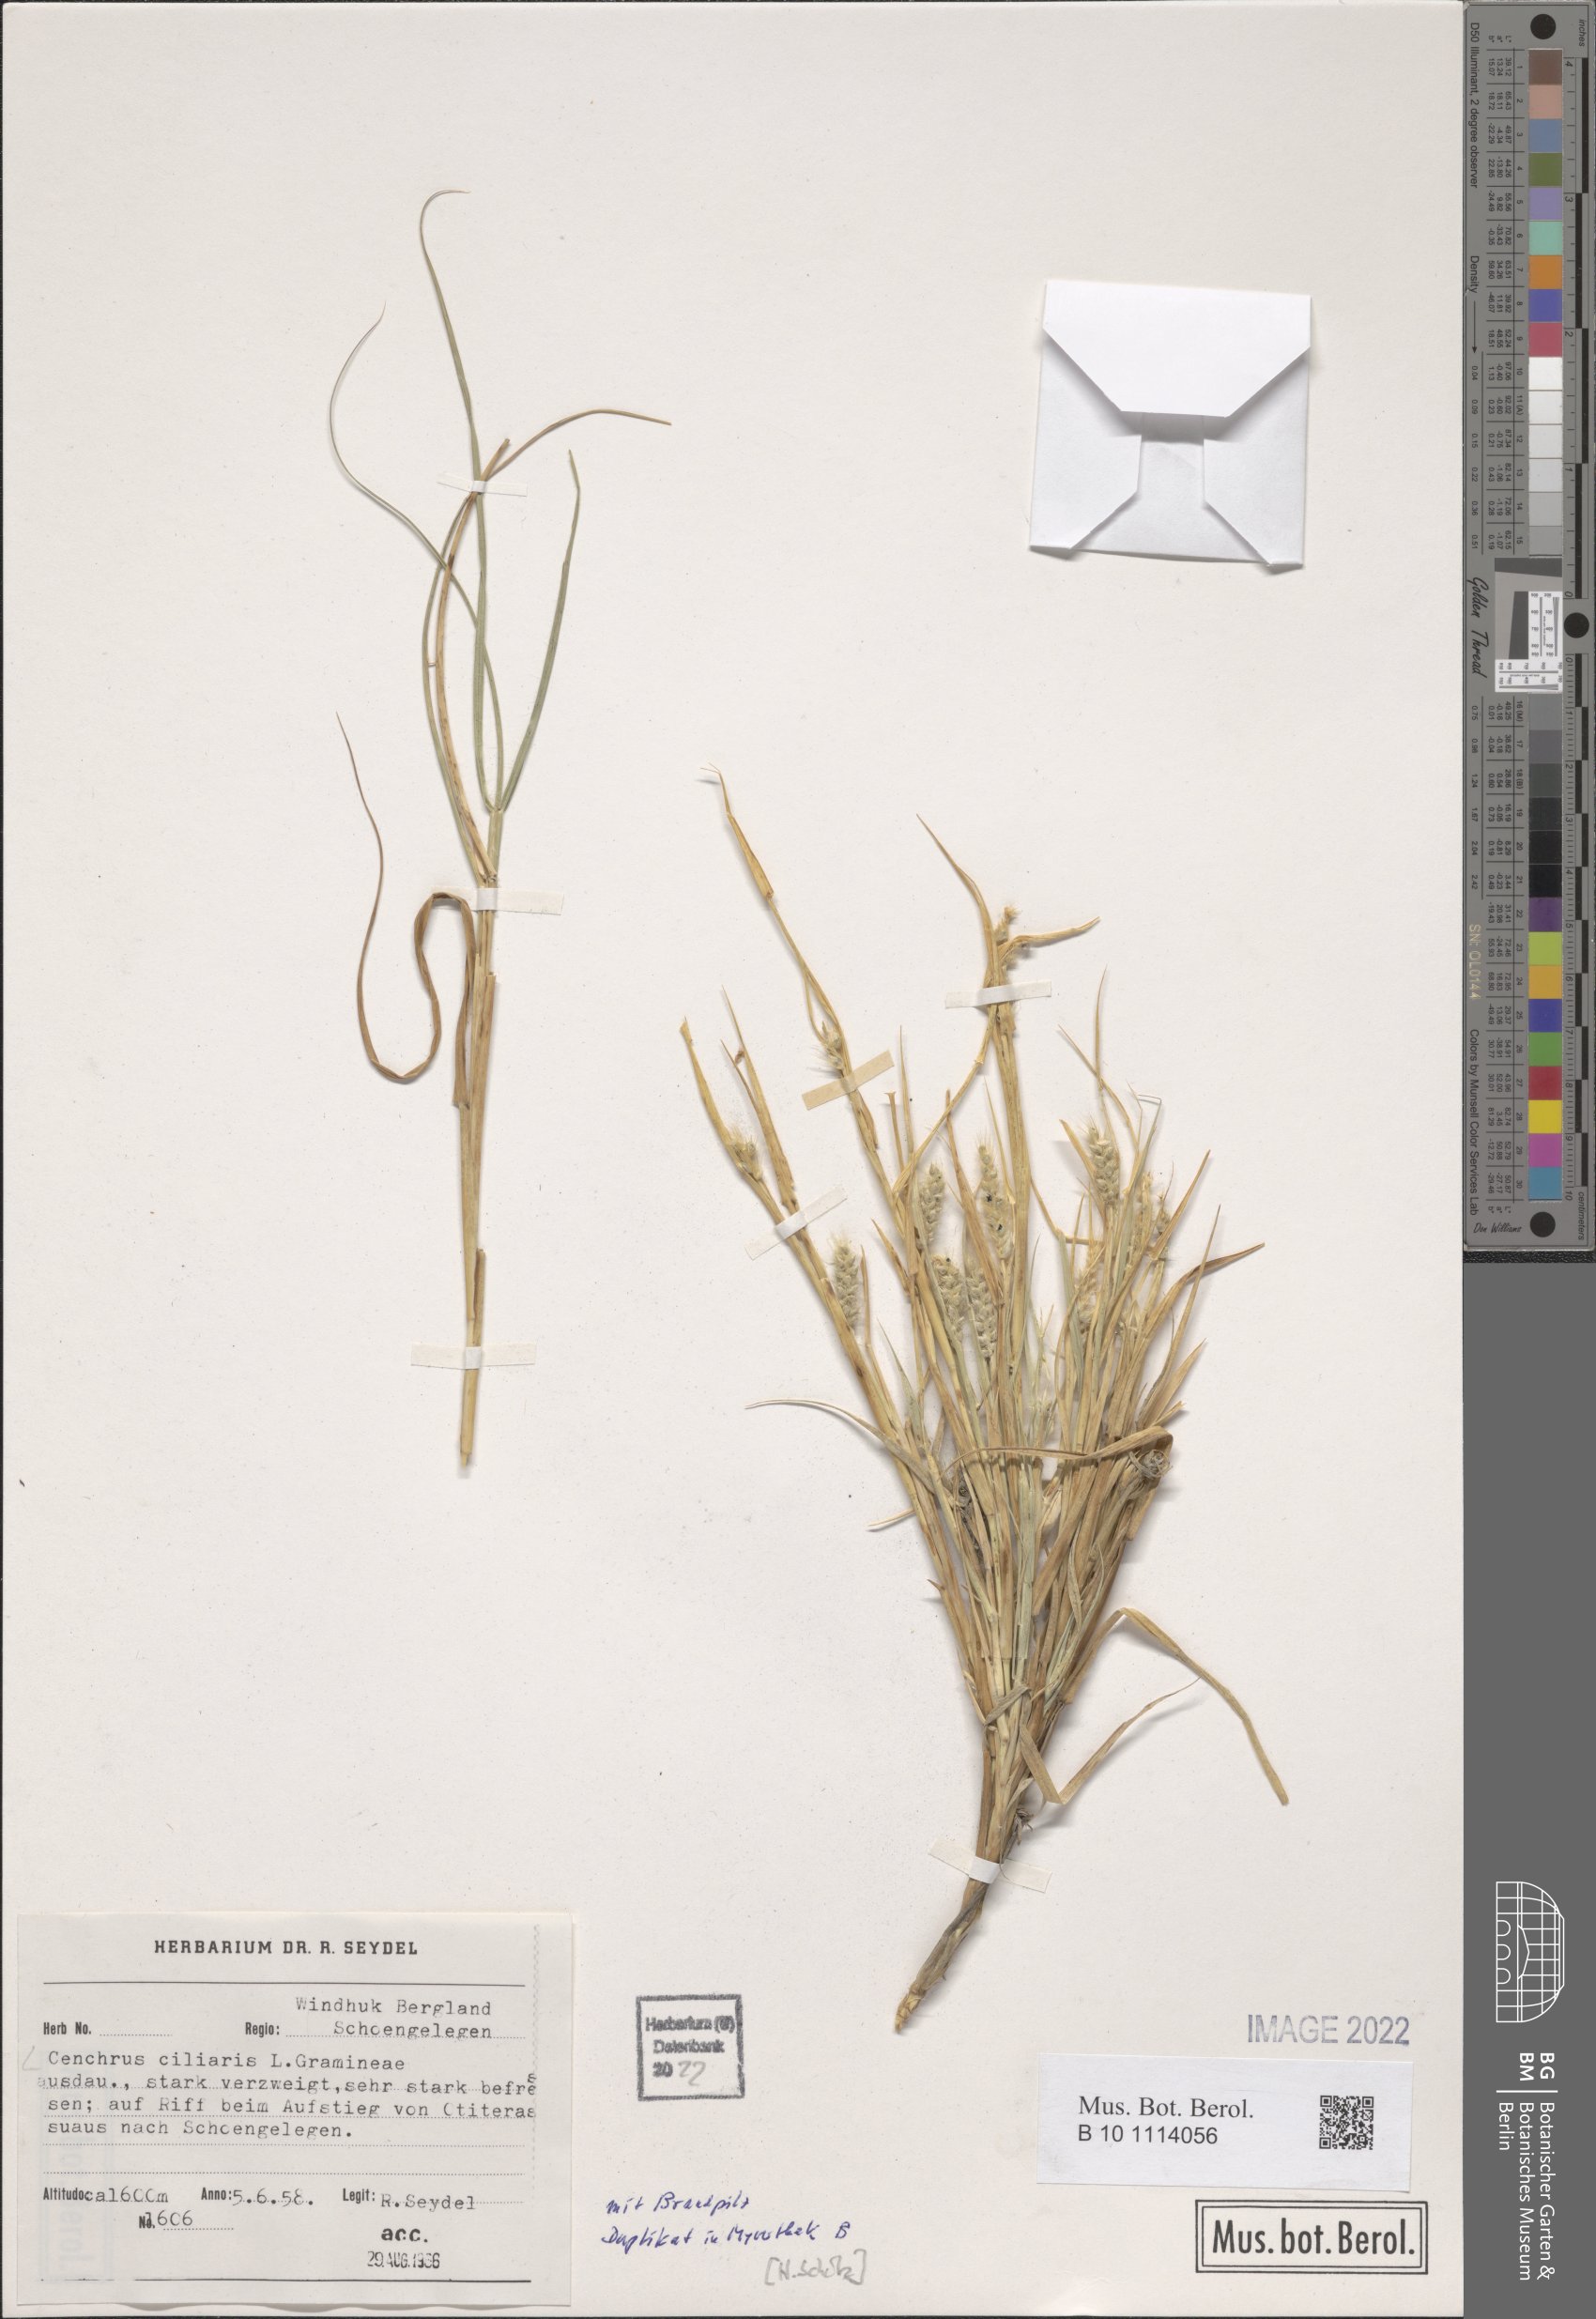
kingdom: Plantae
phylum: Tracheophyta
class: Liliopsida
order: Poales
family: Poaceae
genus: Cenchrus
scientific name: Cenchrus ciliaris
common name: Buffelgrass
